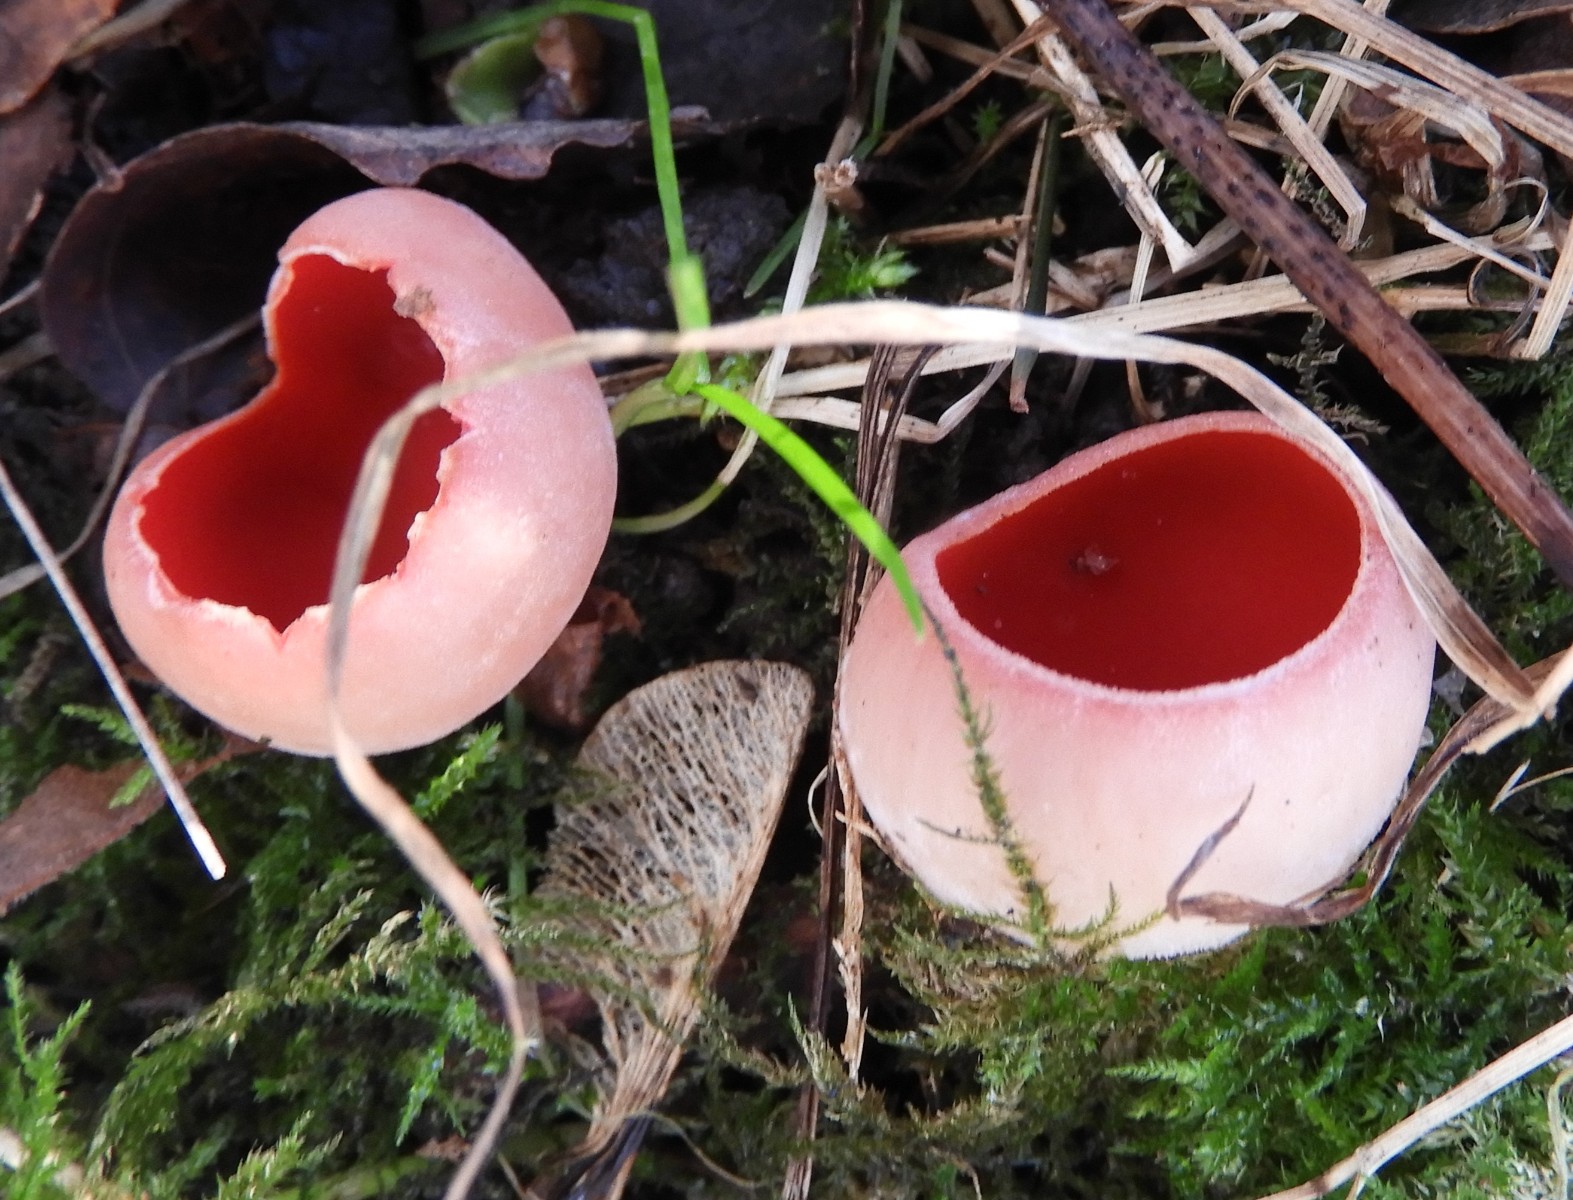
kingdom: Fungi
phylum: Ascomycota
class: Pezizomycetes
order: Pezizales
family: Sarcoscyphaceae
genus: Sarcoscypha
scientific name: Sarcoscypha austriaca
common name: krølhåret pragtbæger
